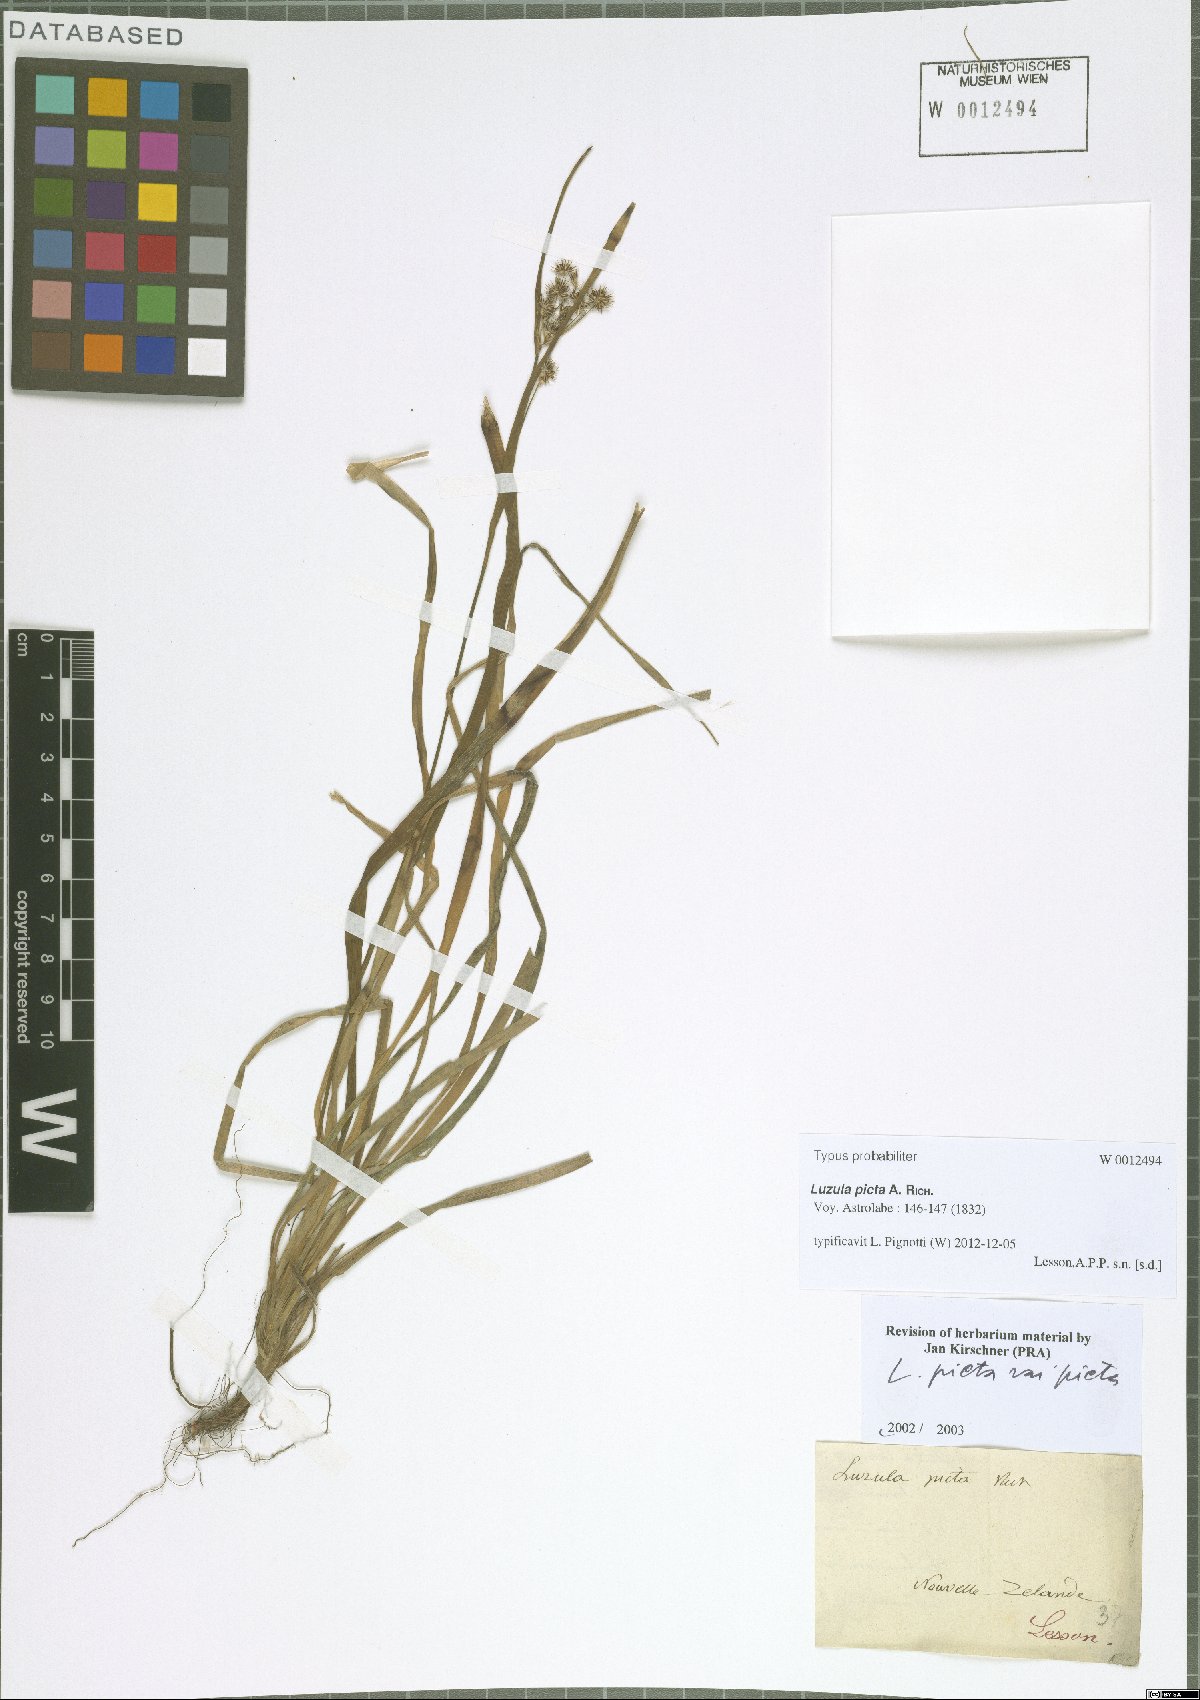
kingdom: Plantae
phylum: Tracheophyta
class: Liliopsida
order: Poales
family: Juncaceae
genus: Luzula
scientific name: Luzula picta
